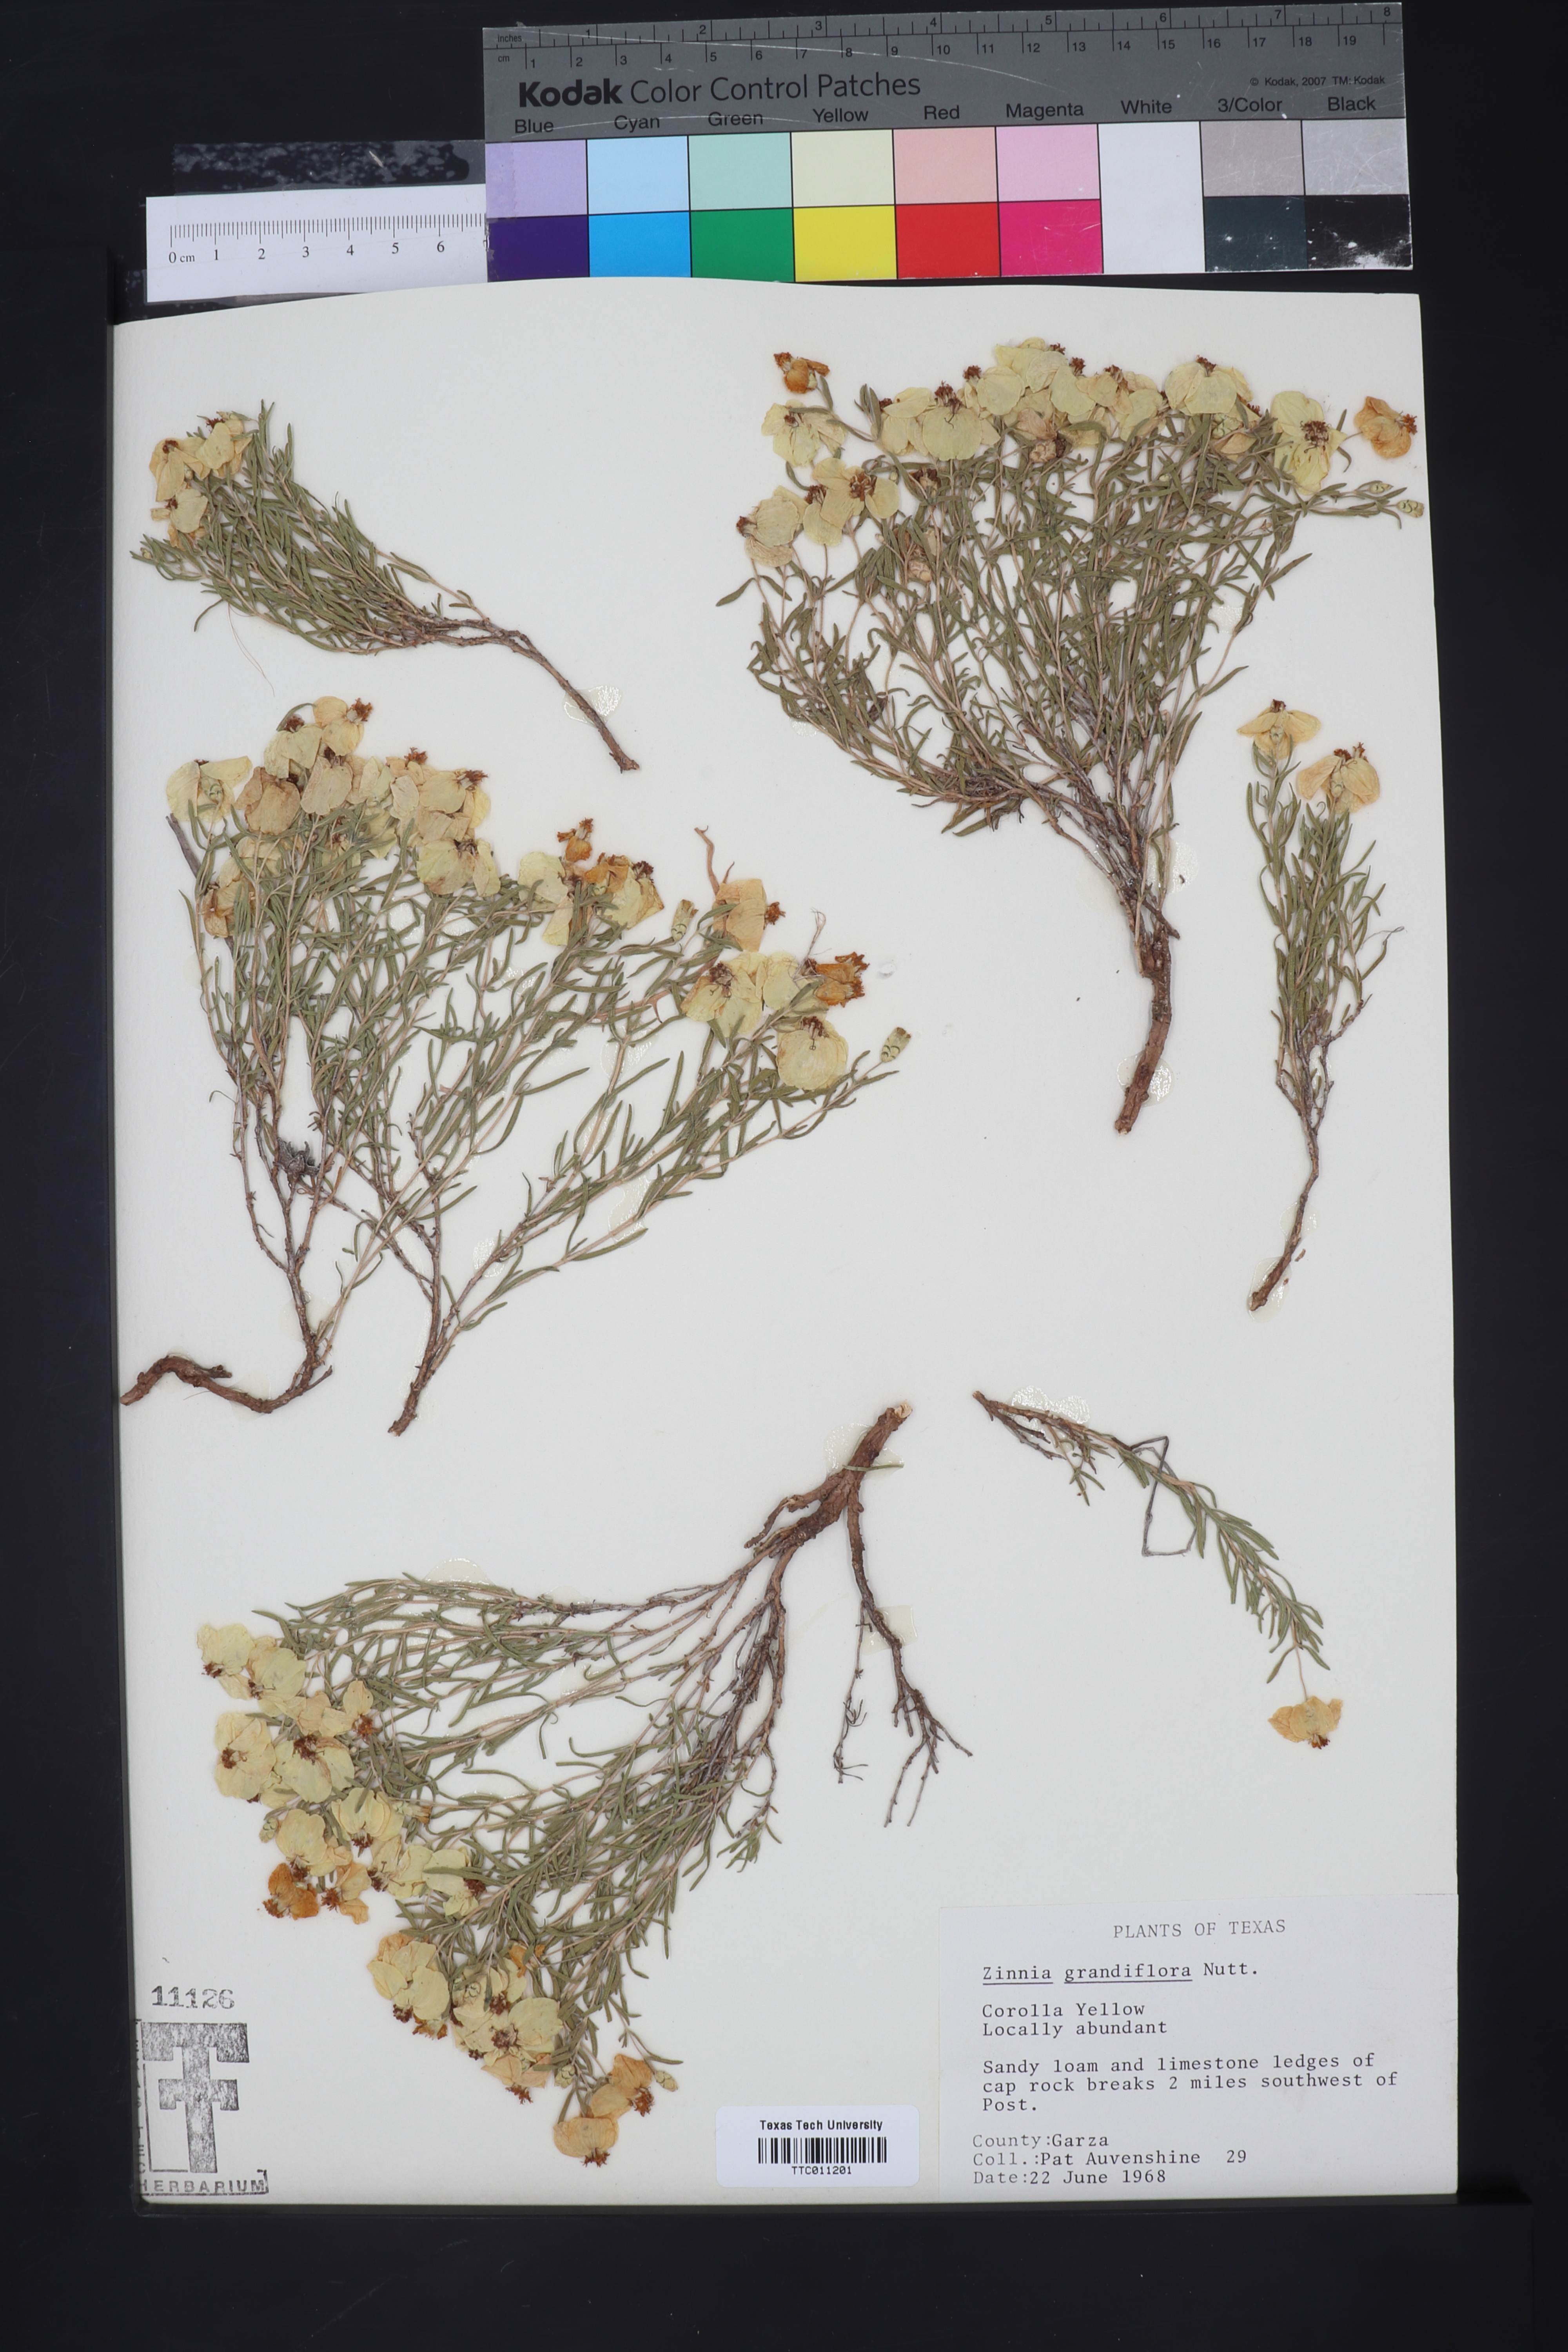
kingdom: Plantae
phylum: Tracheophyta
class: Magnoliopsida
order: Asterales
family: Asteraceae
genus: Zinnia
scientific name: Zinnia grandiflora
